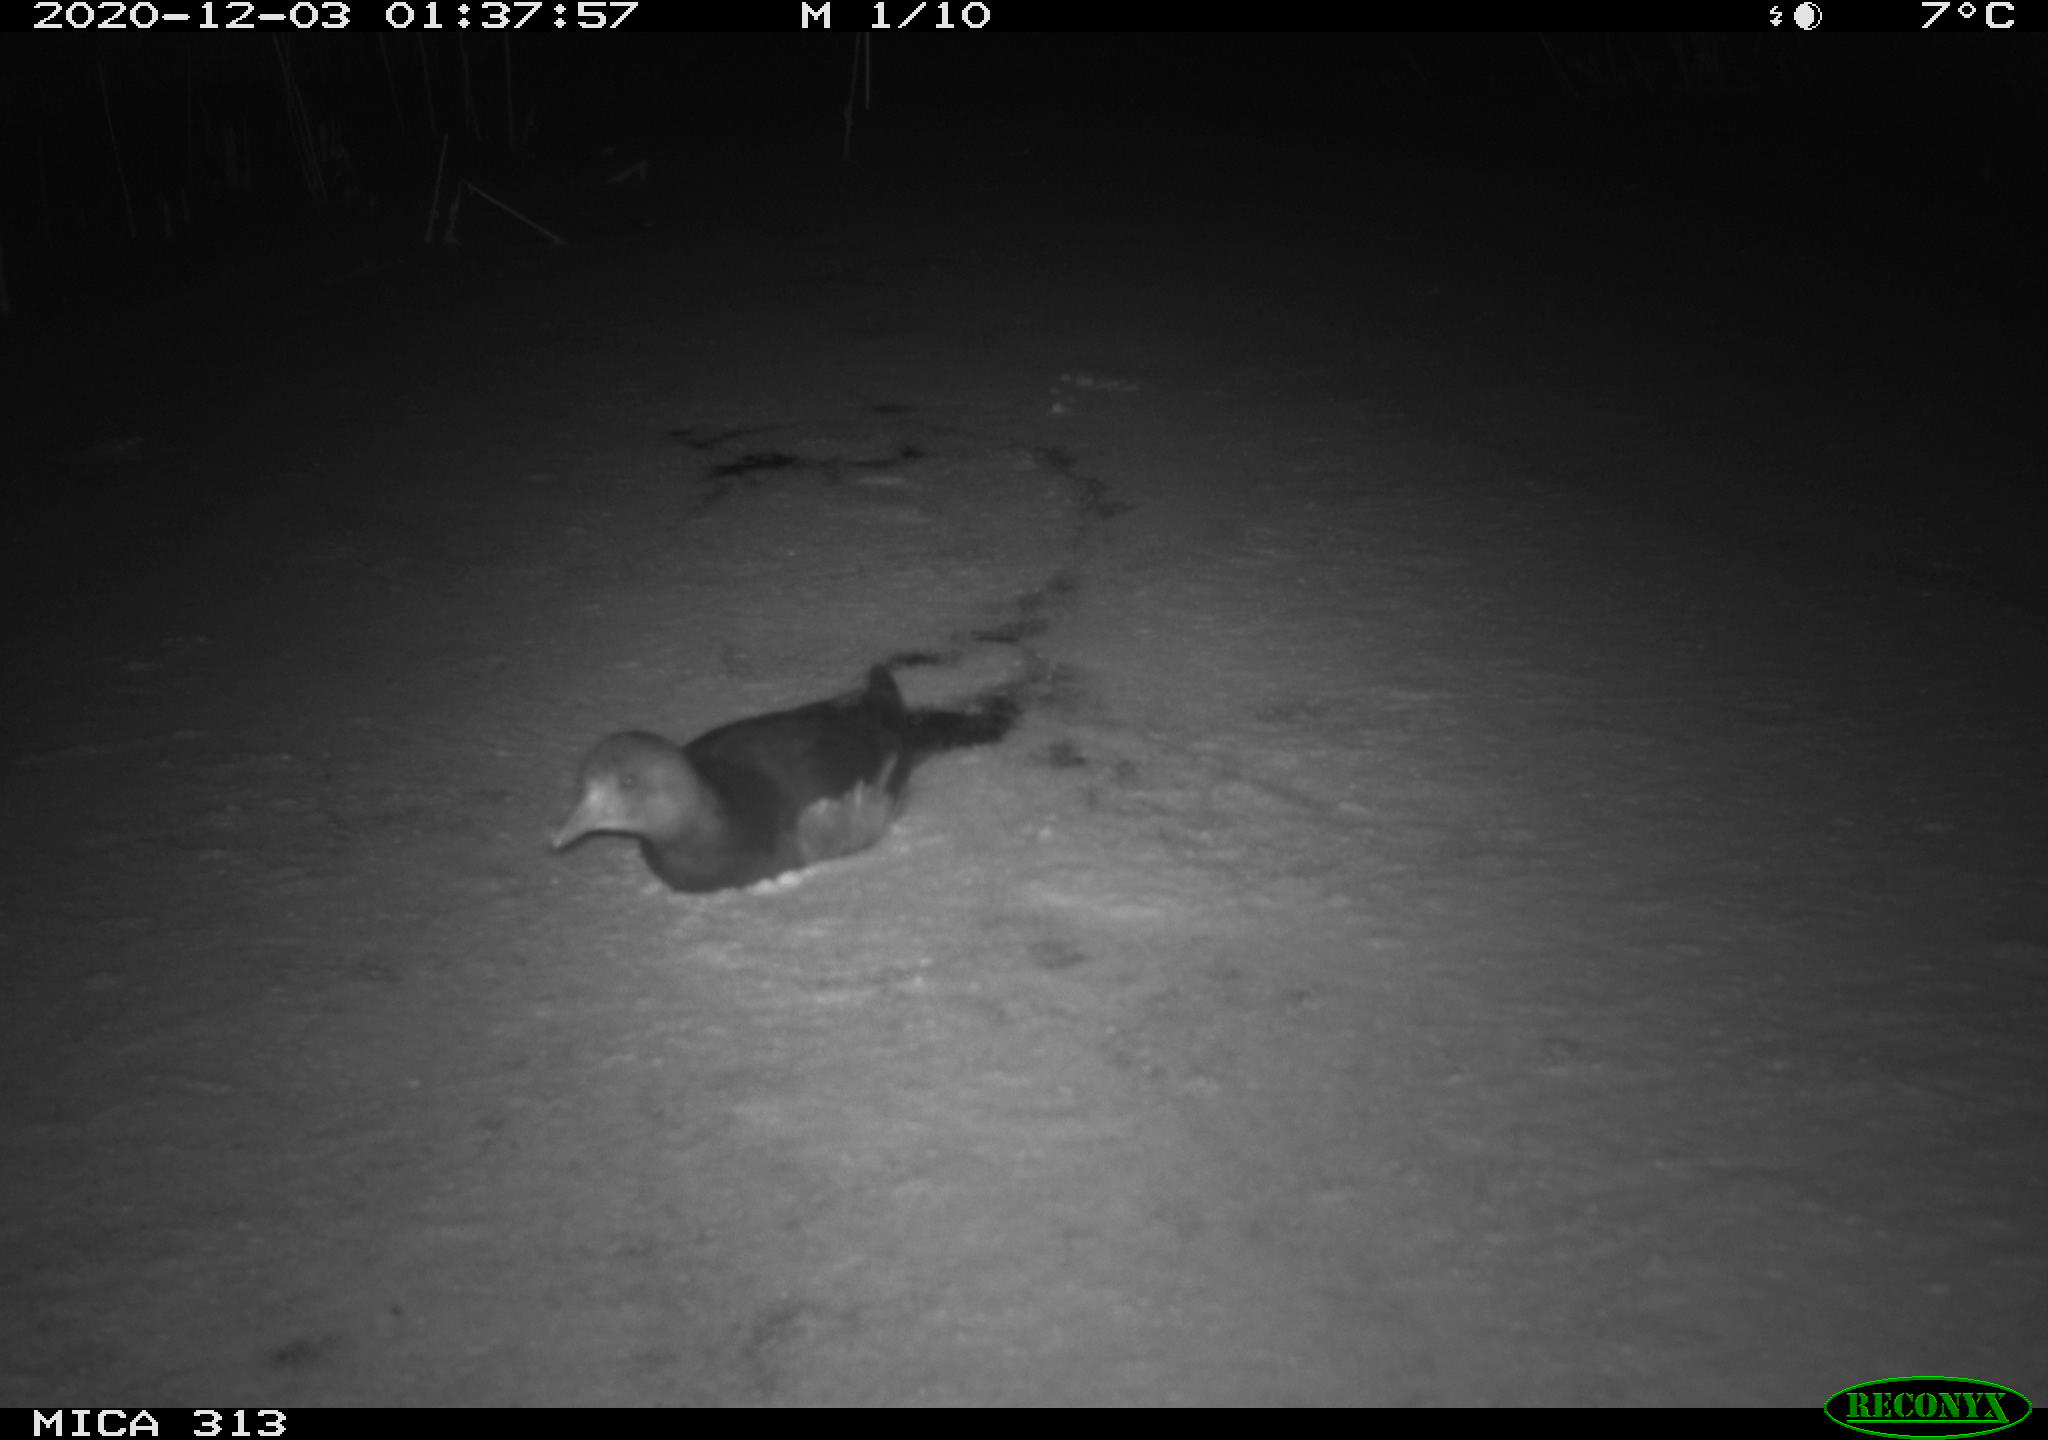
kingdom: Animalia
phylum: Chordata
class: Aves
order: Gruiformes
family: Rallidae
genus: Fulica
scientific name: Fulica atra
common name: Eurasian coot
